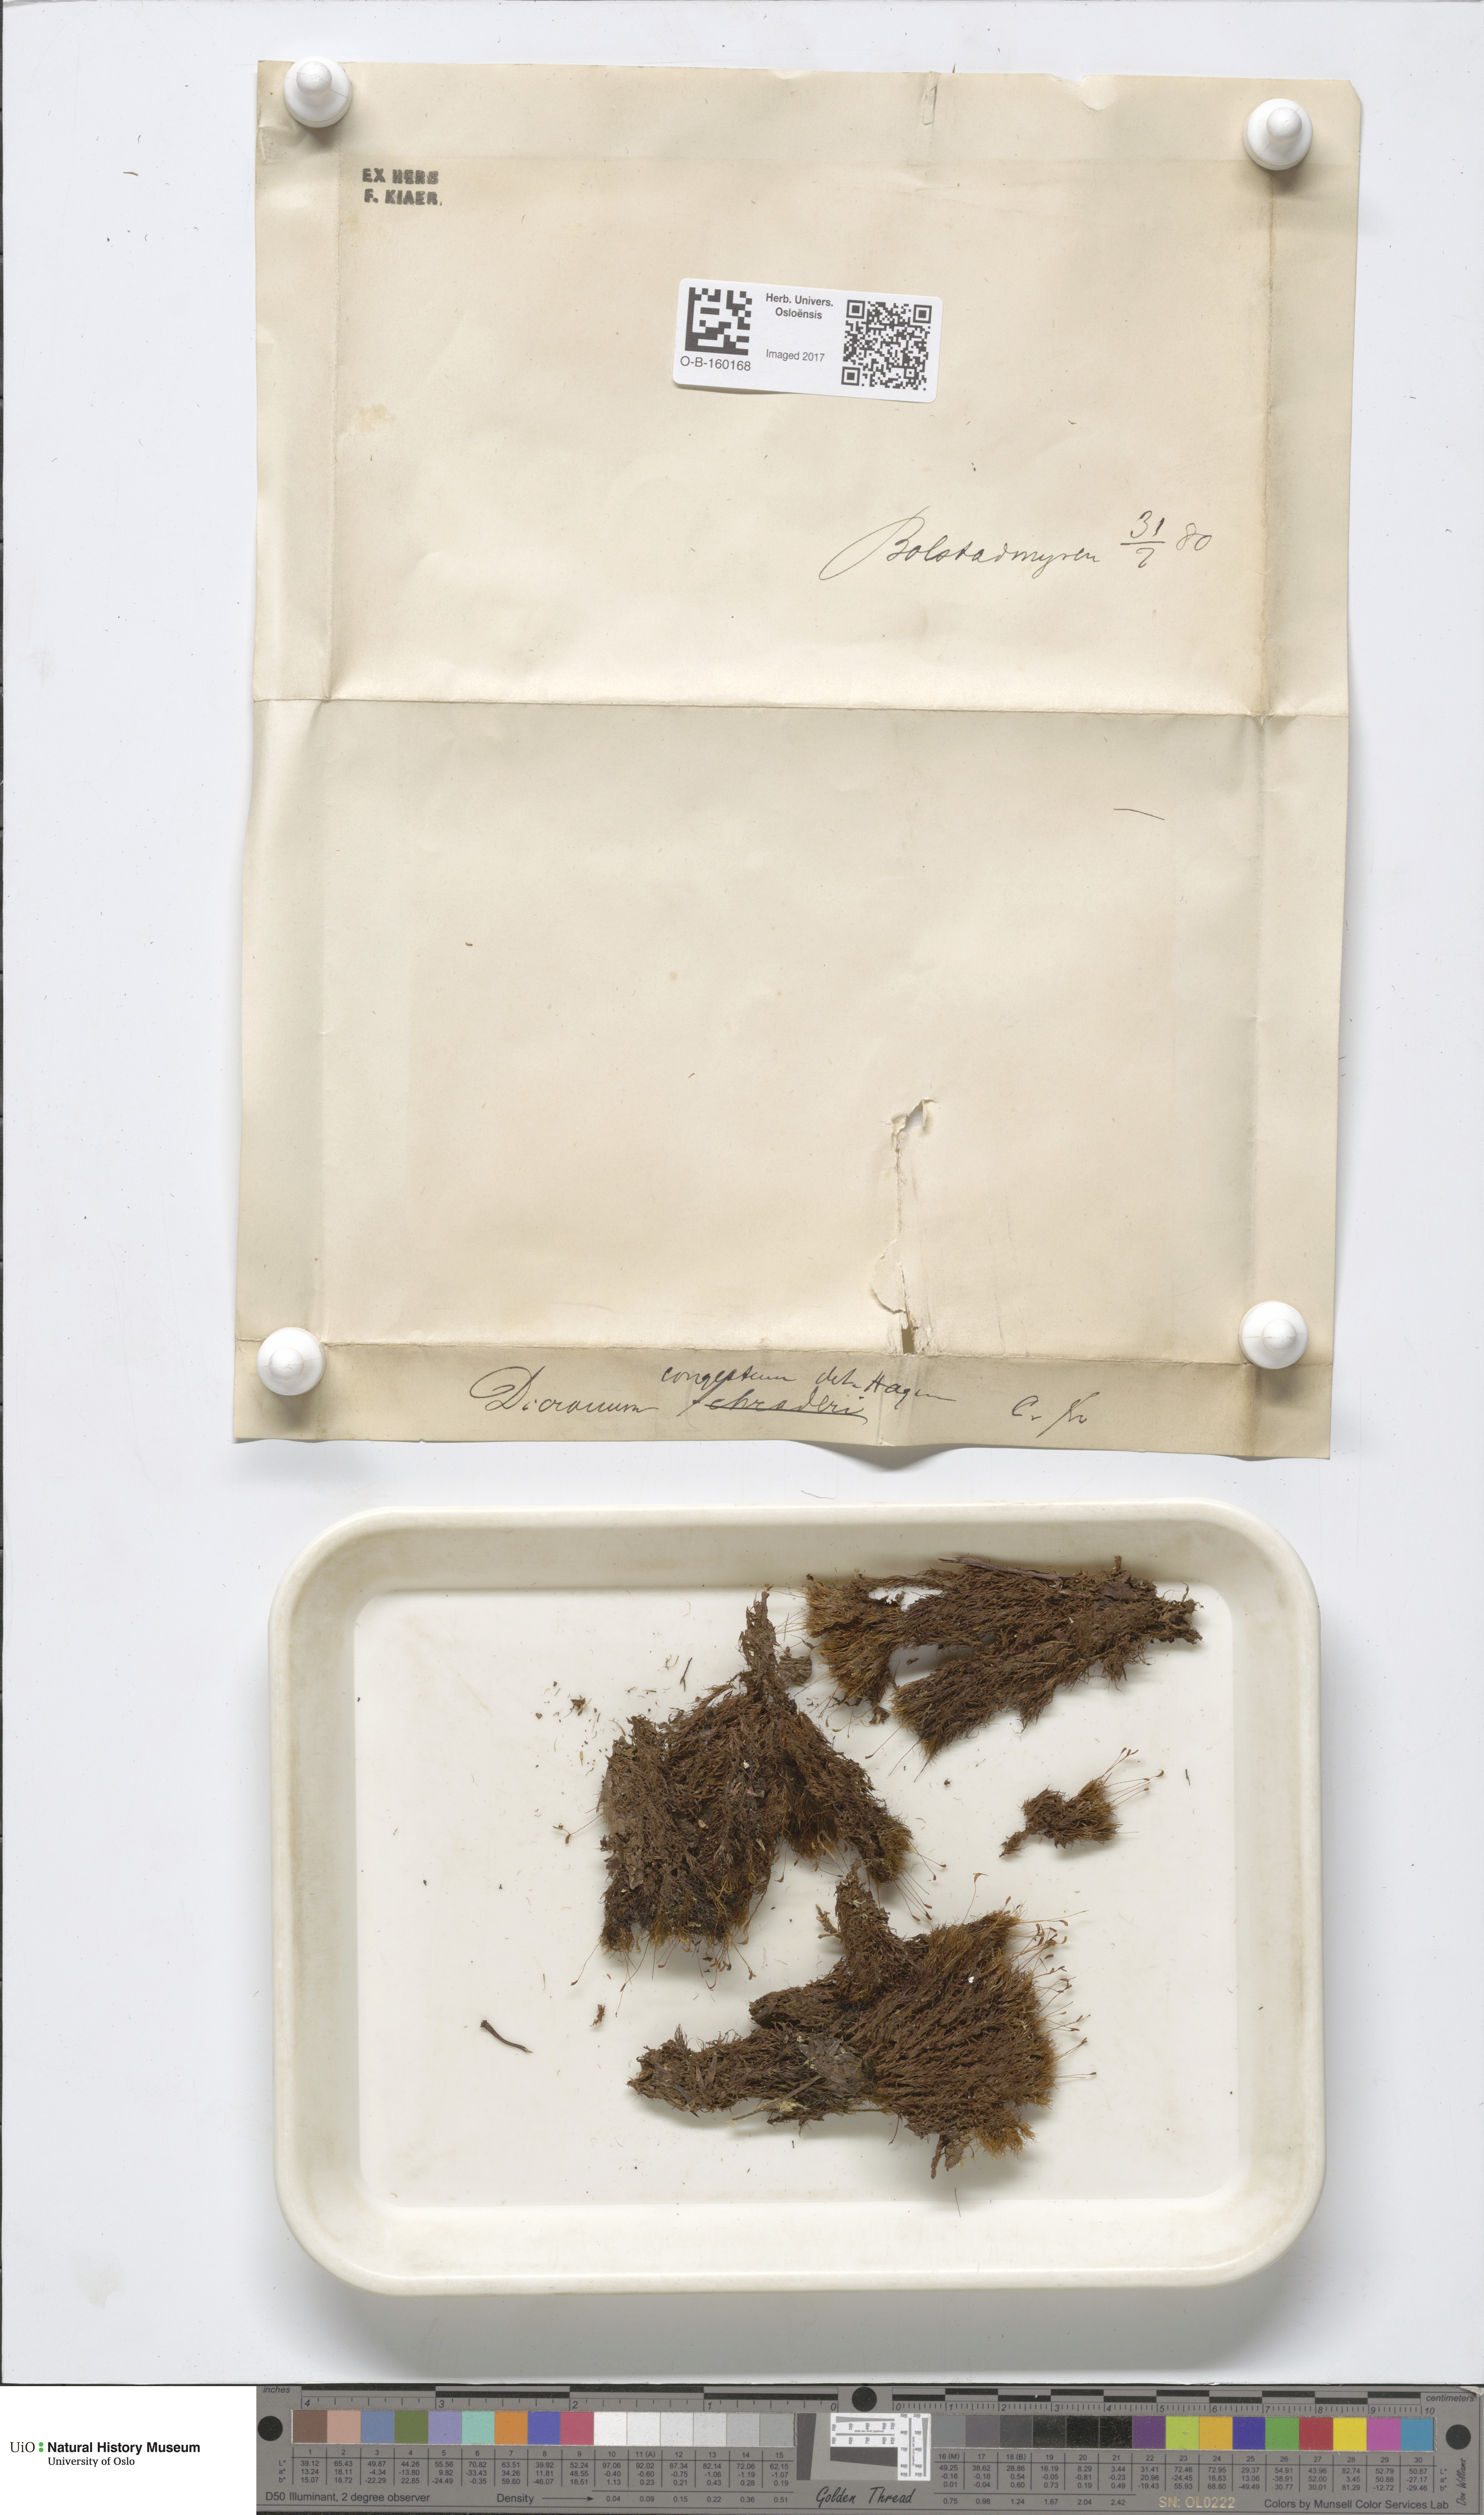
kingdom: Plantae
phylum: Bryophyta
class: Bryopsida
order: Dicranales
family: Dicranaceae
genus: Dicranum
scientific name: Dicranum flexicaule
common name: Bendy heron s-bill moss
